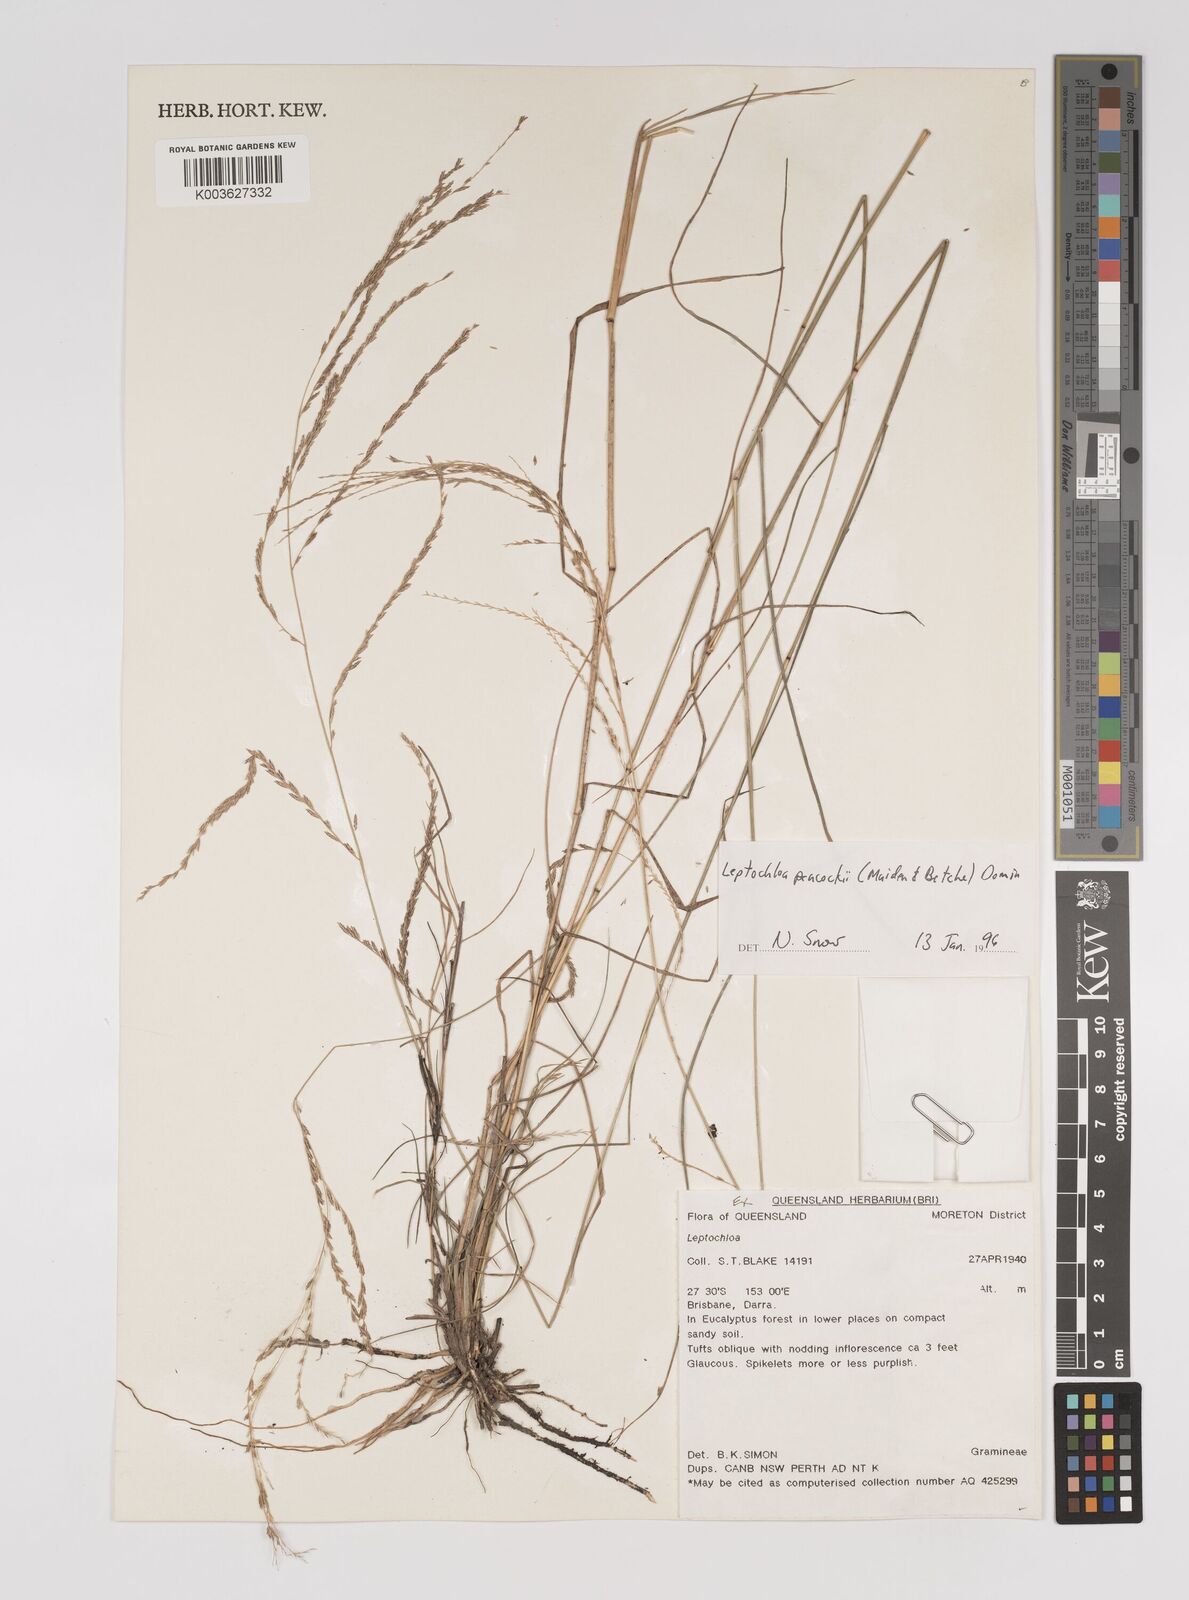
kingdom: Plantae
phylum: Tracheophyta
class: Liliopsida
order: Poales
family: Poaceae
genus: Leptochloa
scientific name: Leptochloa decipiens
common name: Australian sprangletop
